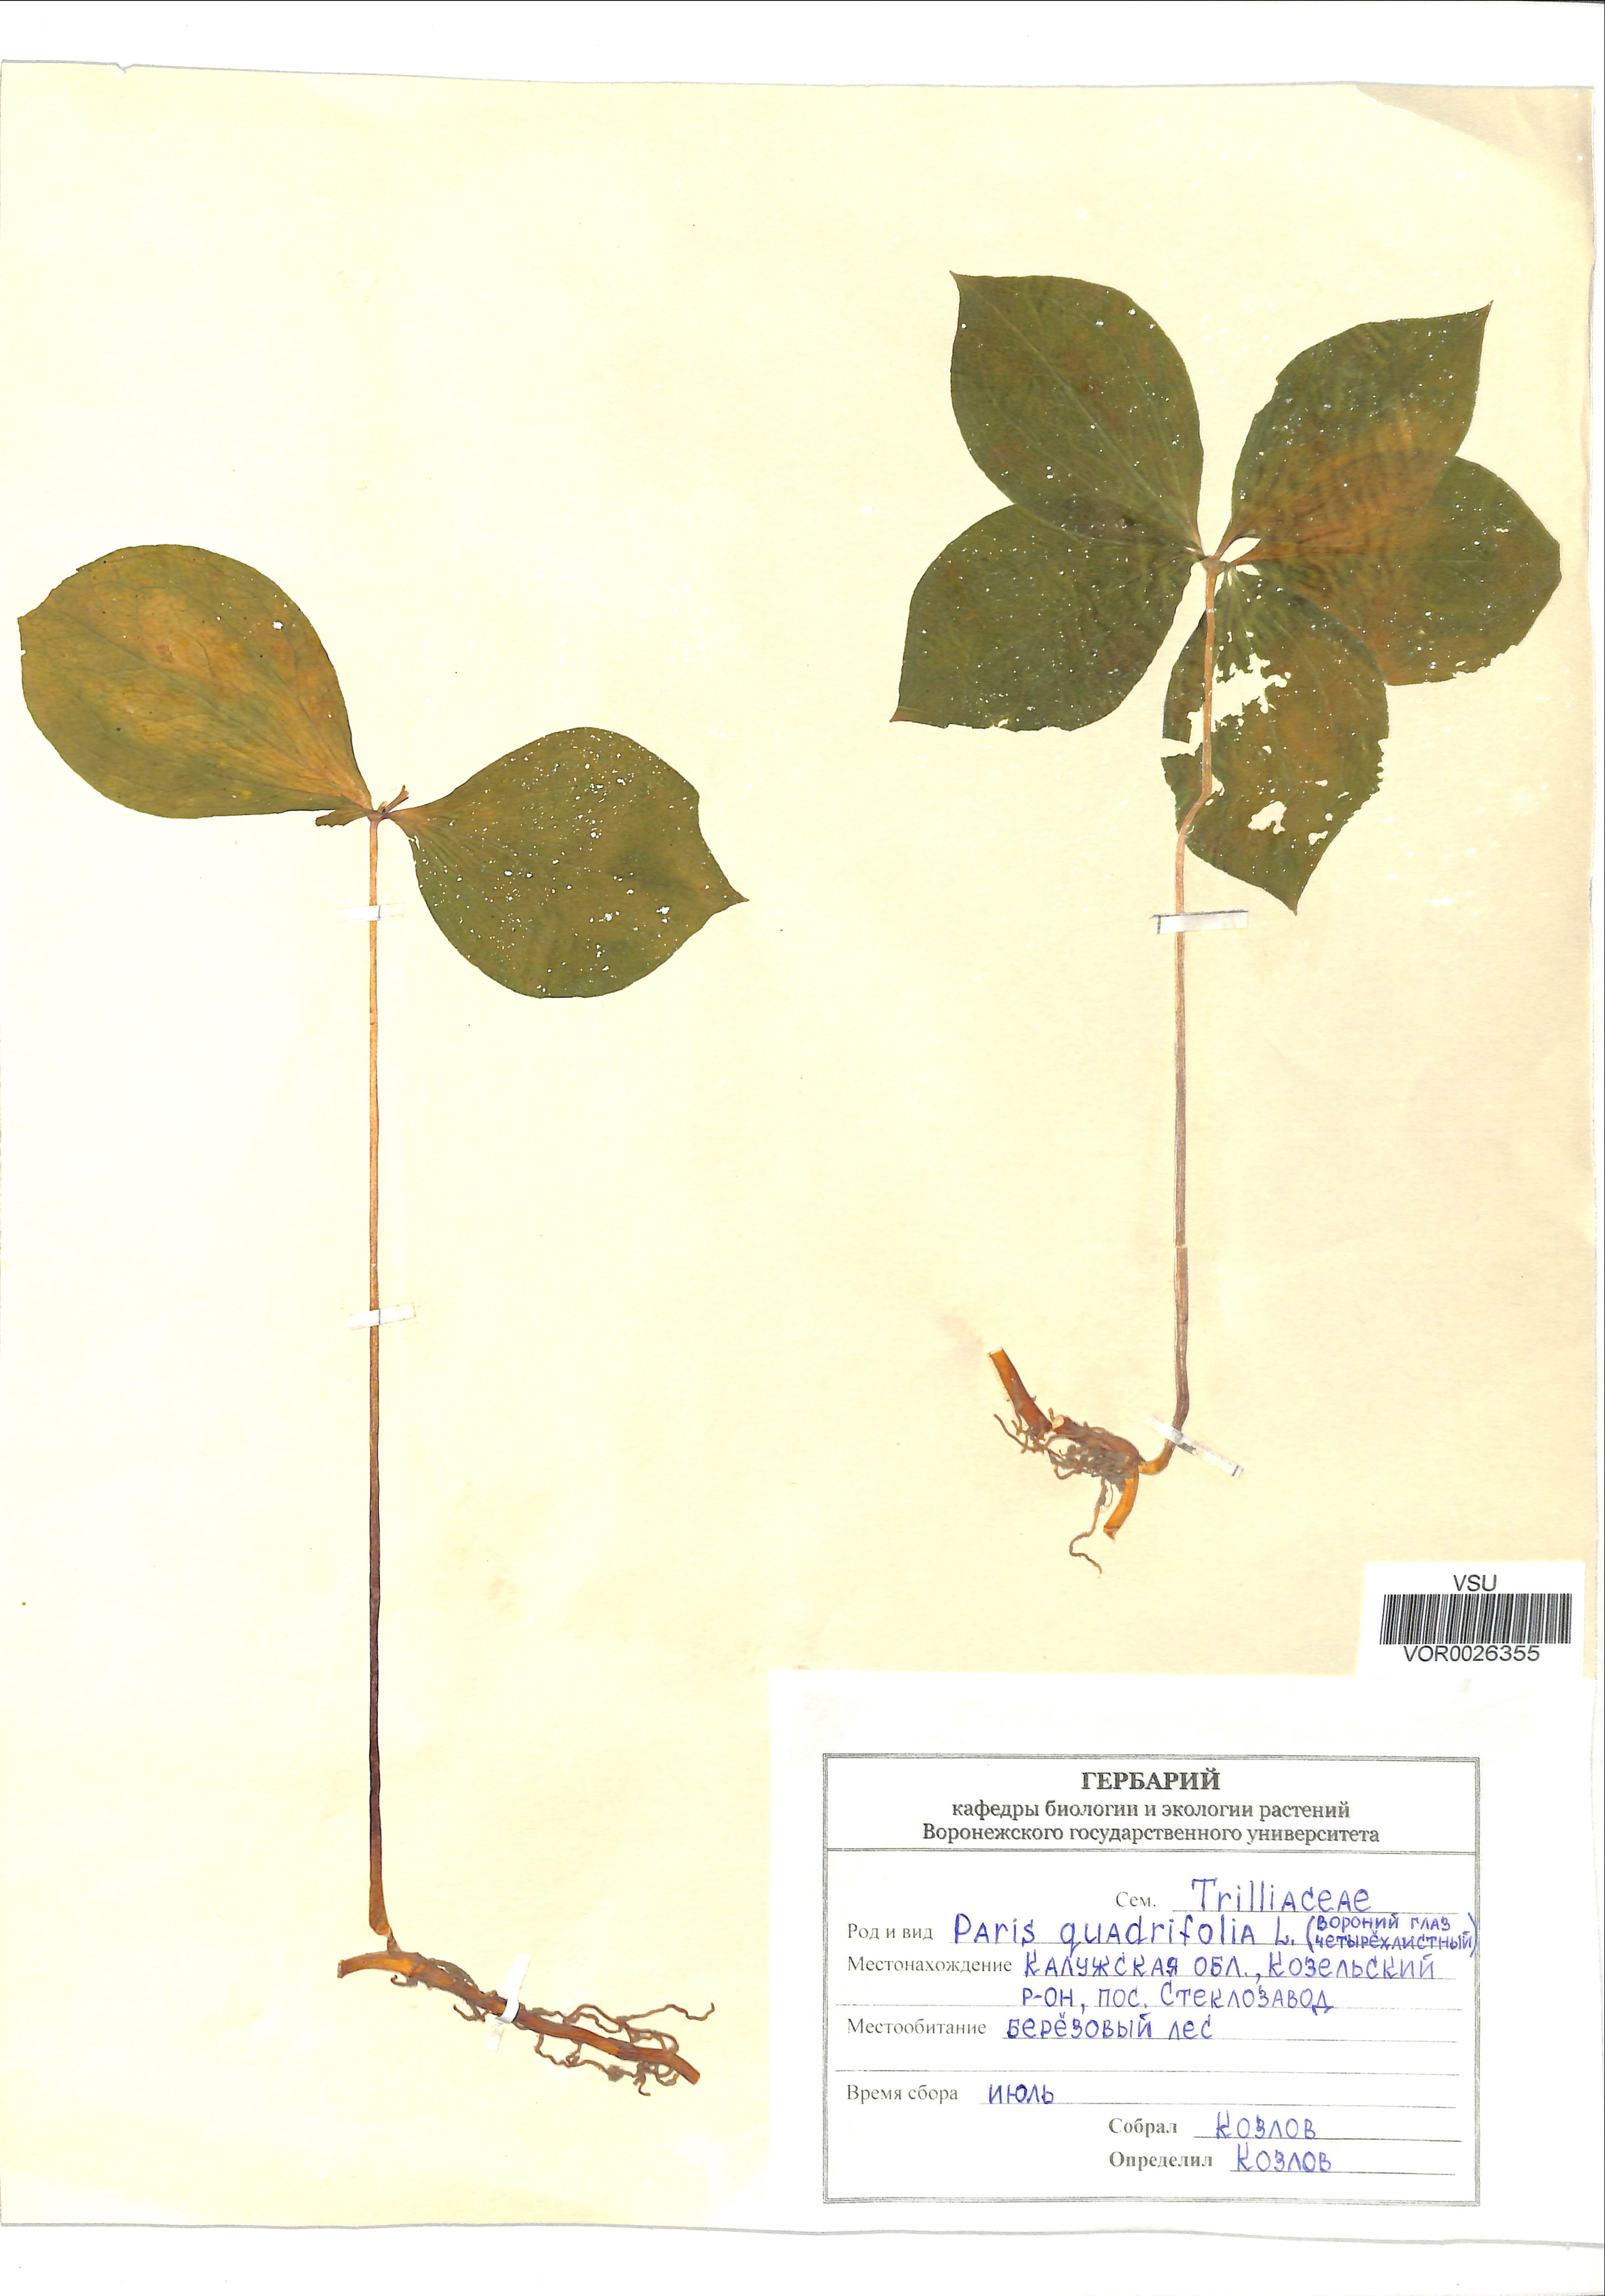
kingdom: Plantae
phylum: Tracheophyta
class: Liliopsida
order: Liliales
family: Melanthiaceae
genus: Paris
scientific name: Paris quadrifolia
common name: Herb-paris
